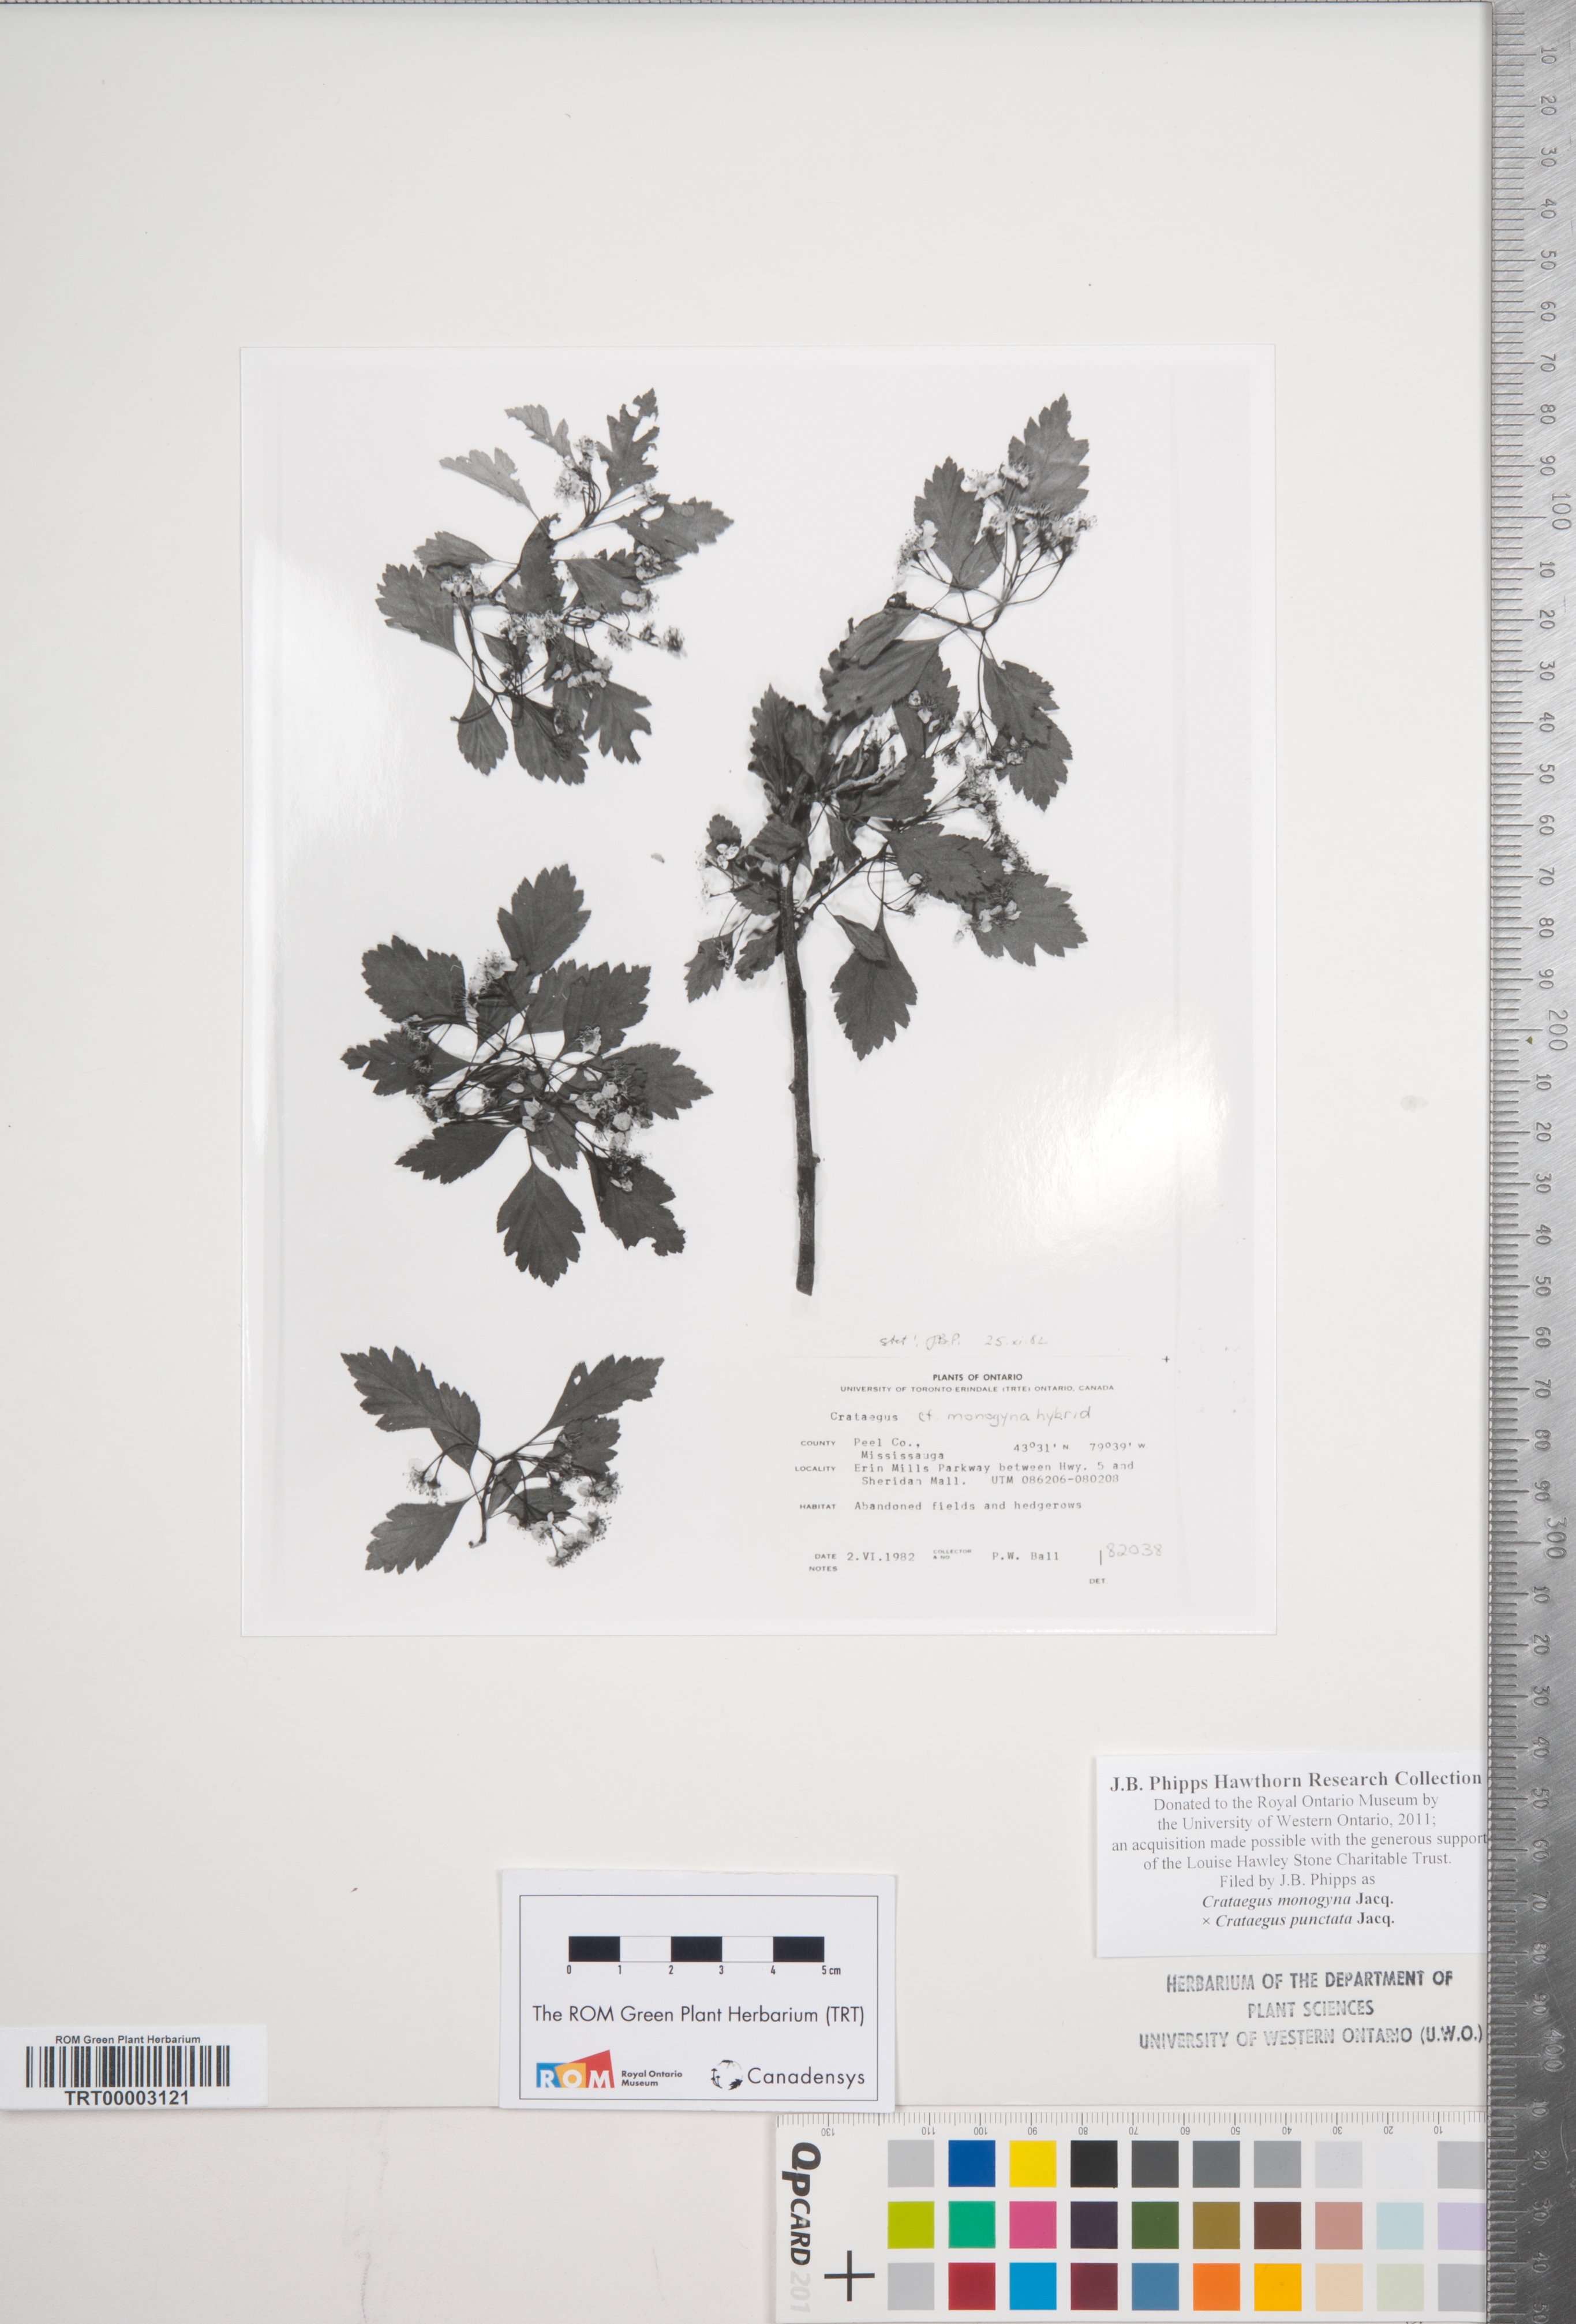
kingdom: Plantae
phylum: Tracheophyta
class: Magnoliopsida
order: Rosales
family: Rosaceae
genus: Crataegus
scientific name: Crataegus monogyna
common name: Hawthorn
